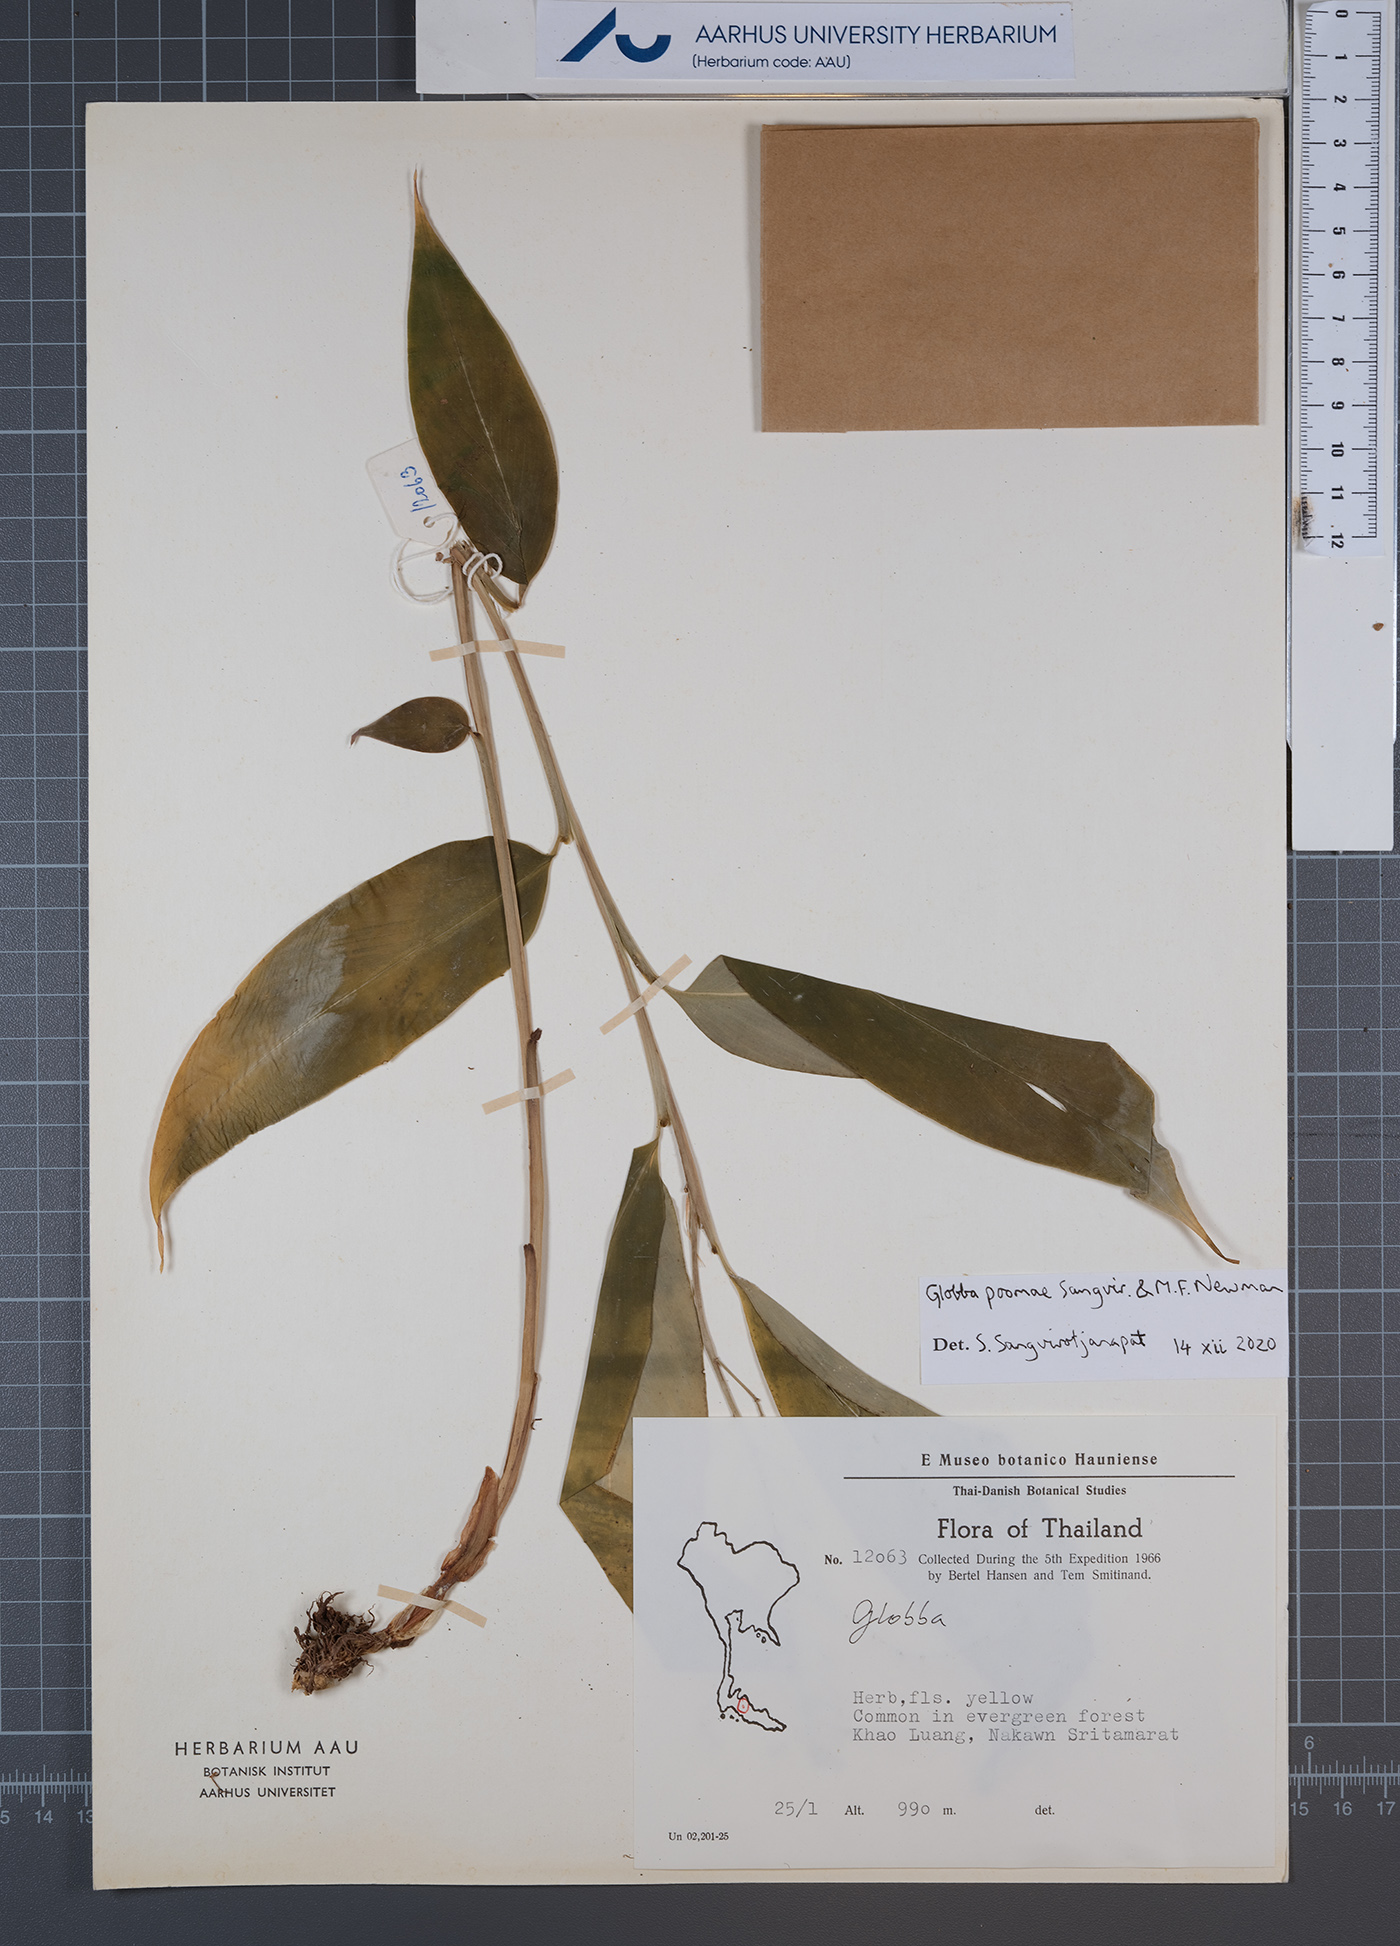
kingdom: Plantae
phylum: Tracheophyta
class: Liliopsida
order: Zingiberales
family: Zingiberaceae
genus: Globba
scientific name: Globba poomae
